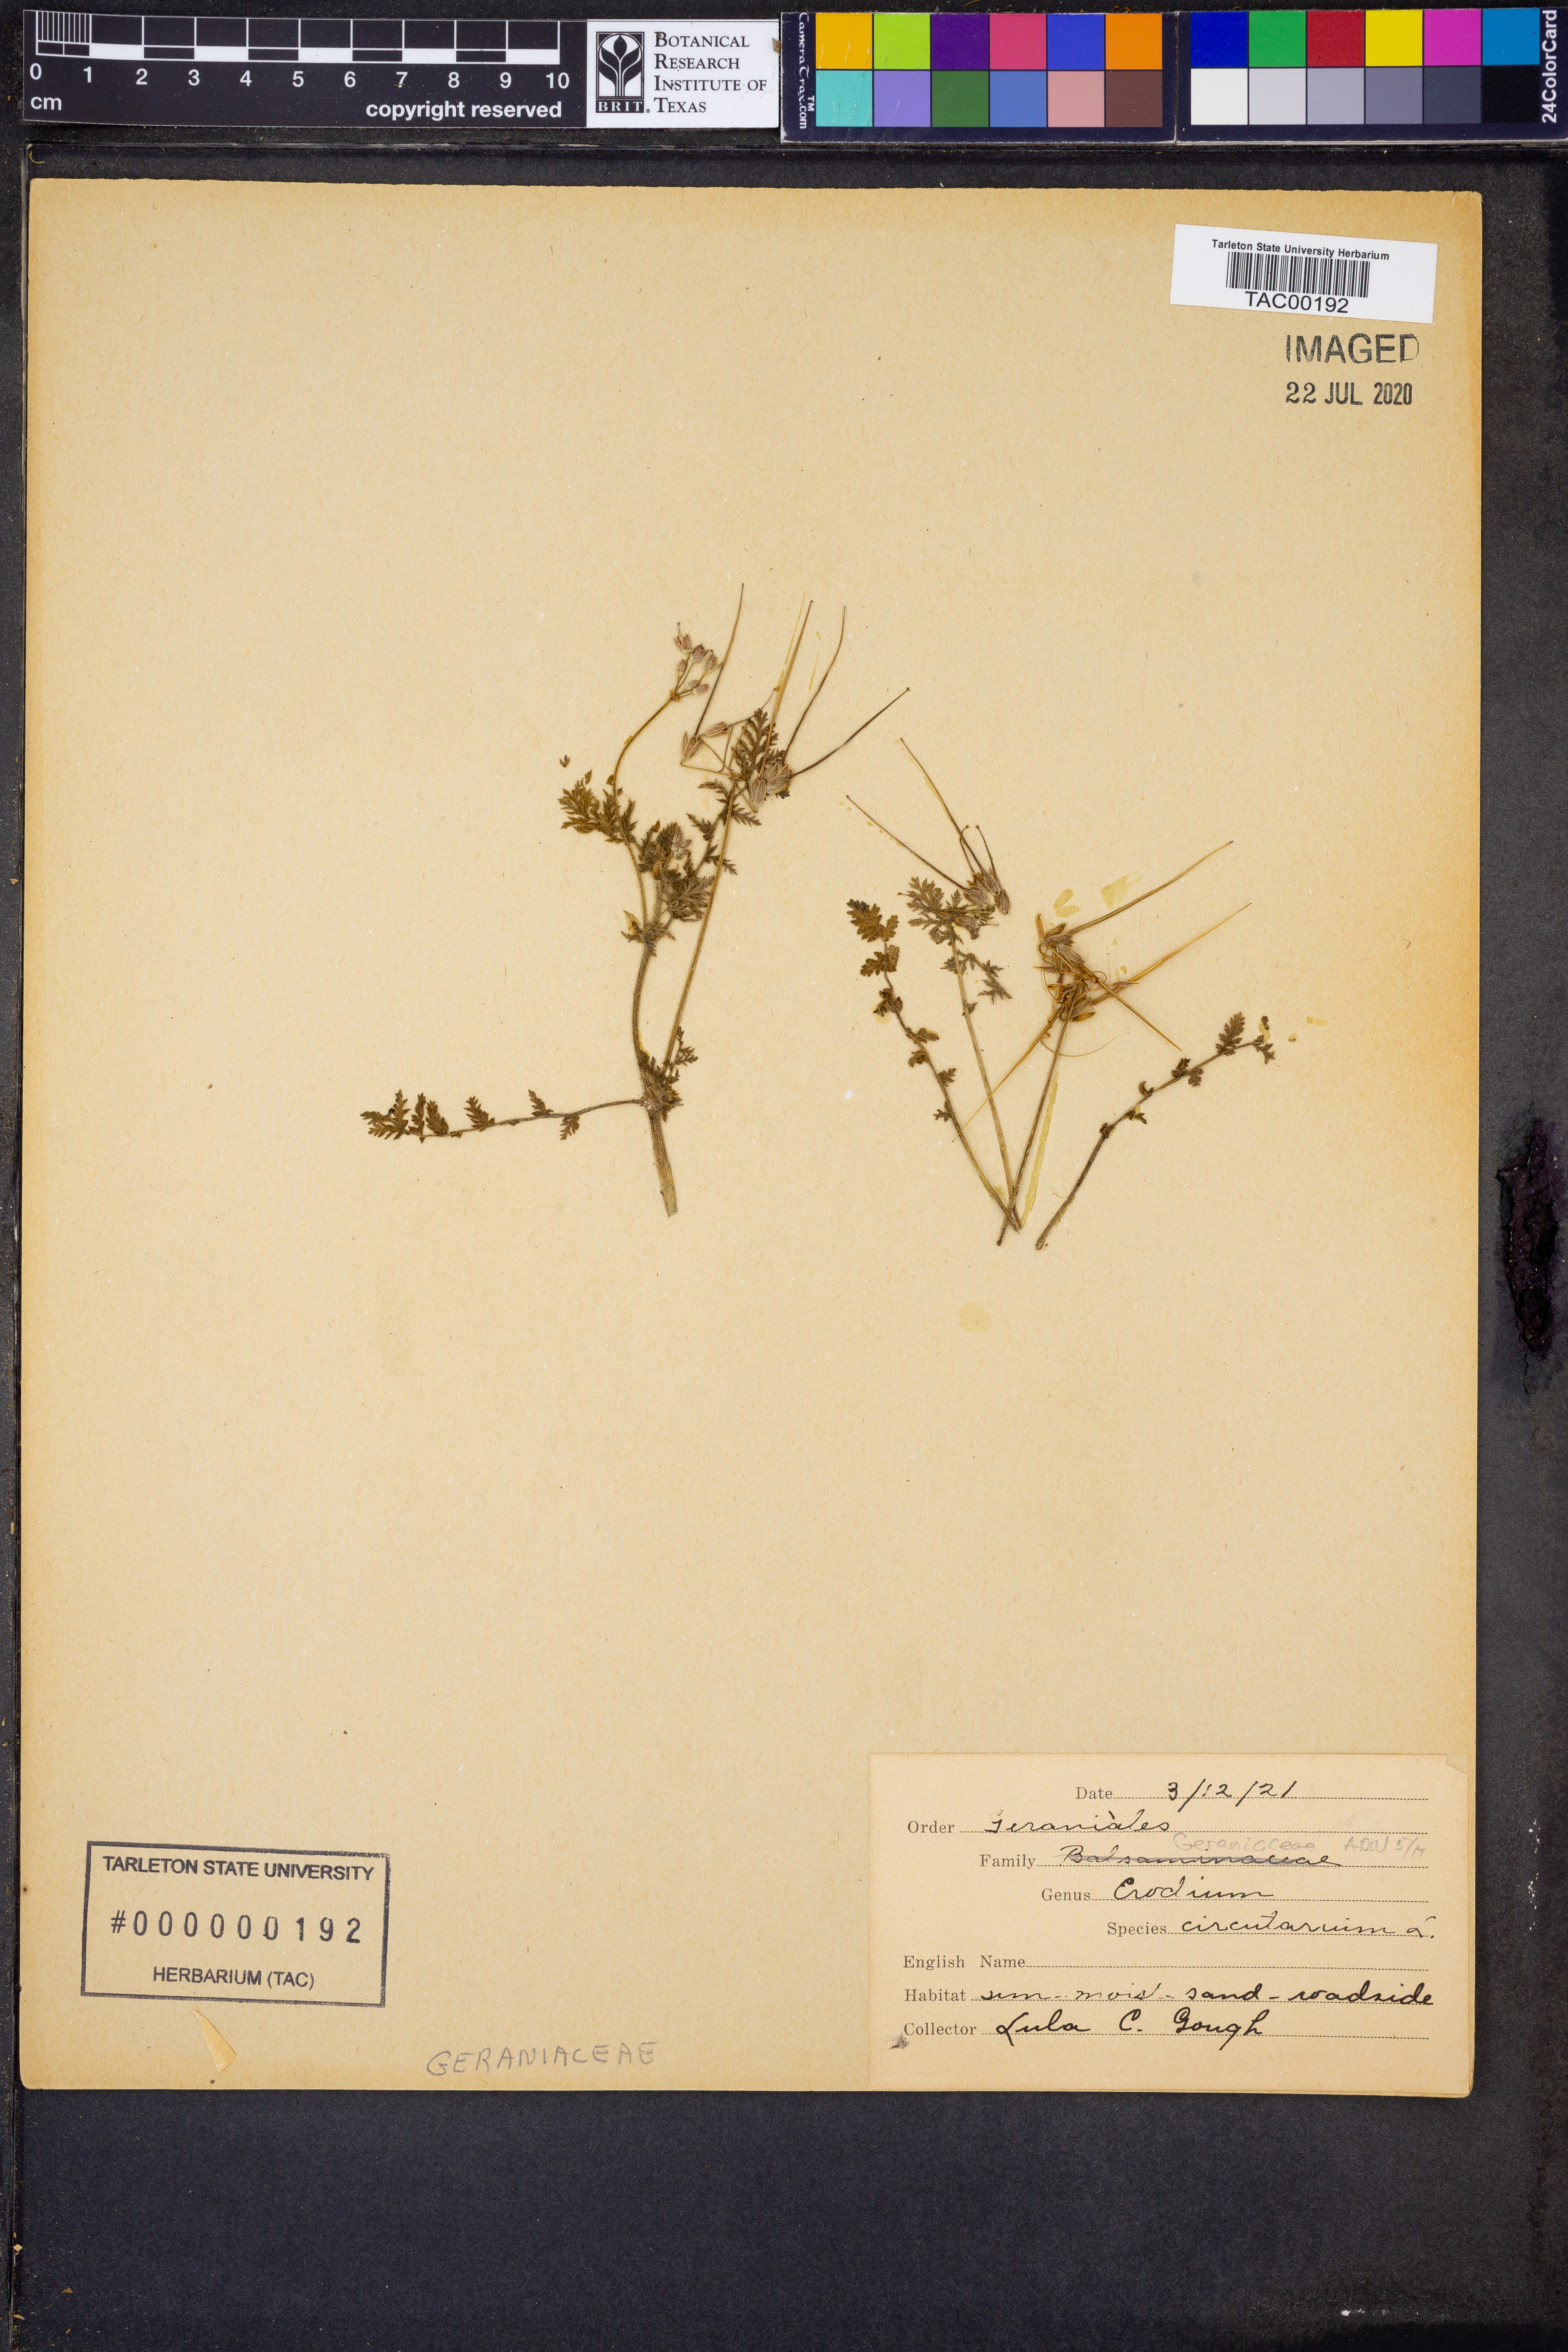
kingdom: Plantae
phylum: Tracheophyta
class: Magnoliopsida
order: Geraniales
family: Geraniaceae
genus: Erodium
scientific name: Erodium cicutarium
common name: Common stork's-bill
